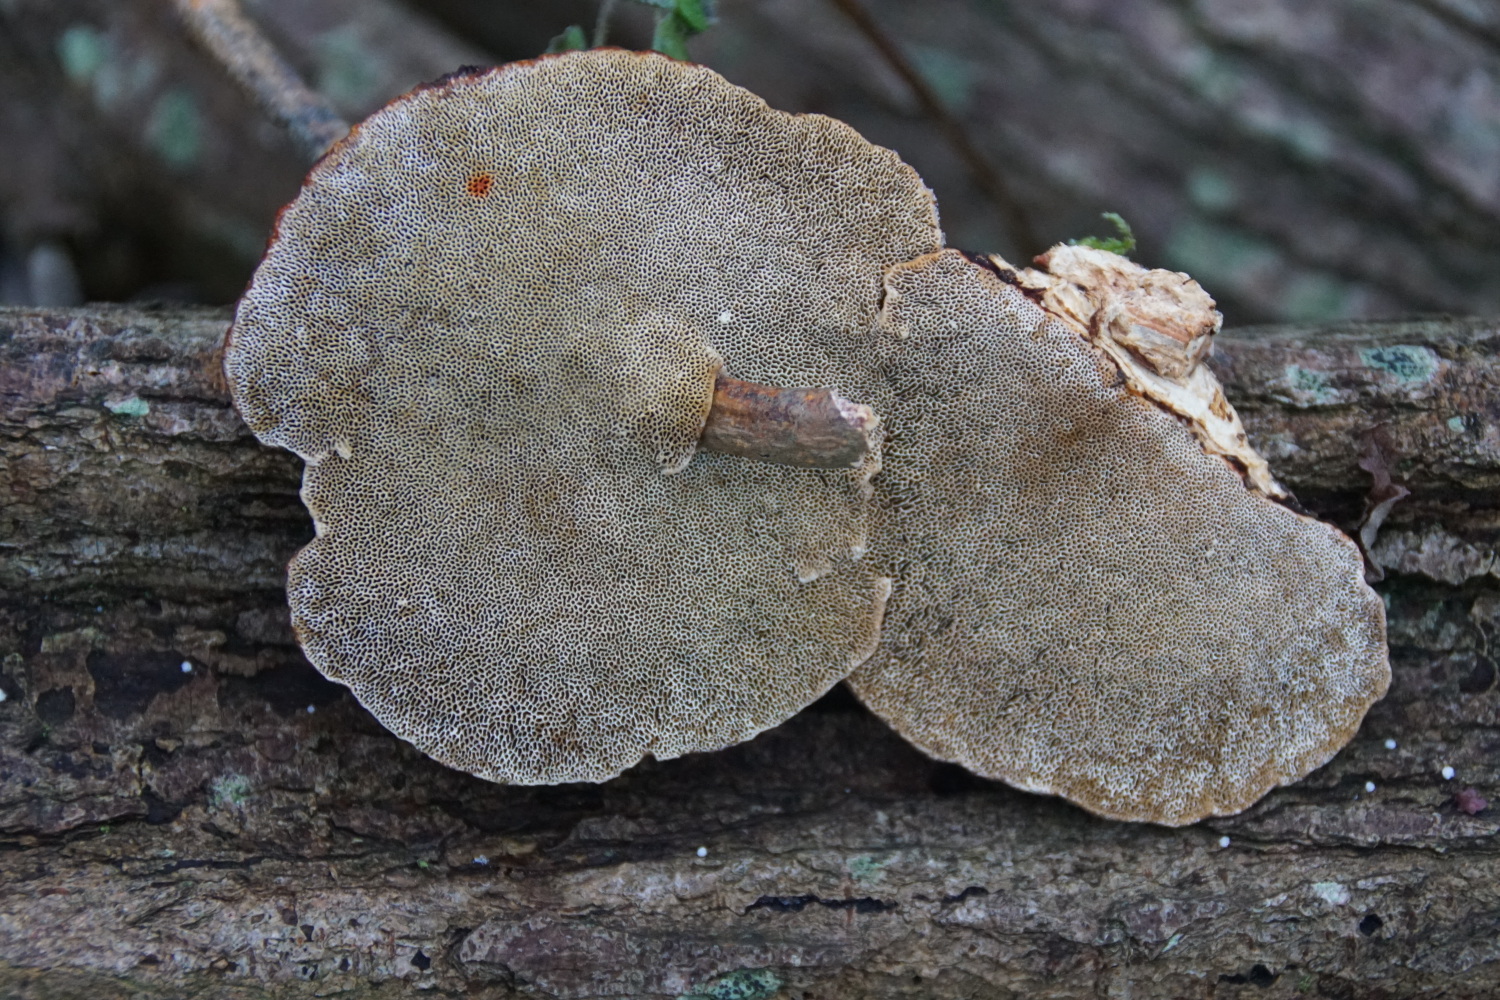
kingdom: Fungi
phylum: Basidiomycota
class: Agaricomycetes
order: Polyporales
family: Polyporaceae
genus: Daedaleopsis
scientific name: Daedaleopsis confragosa
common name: rødmende læderporesvamp
